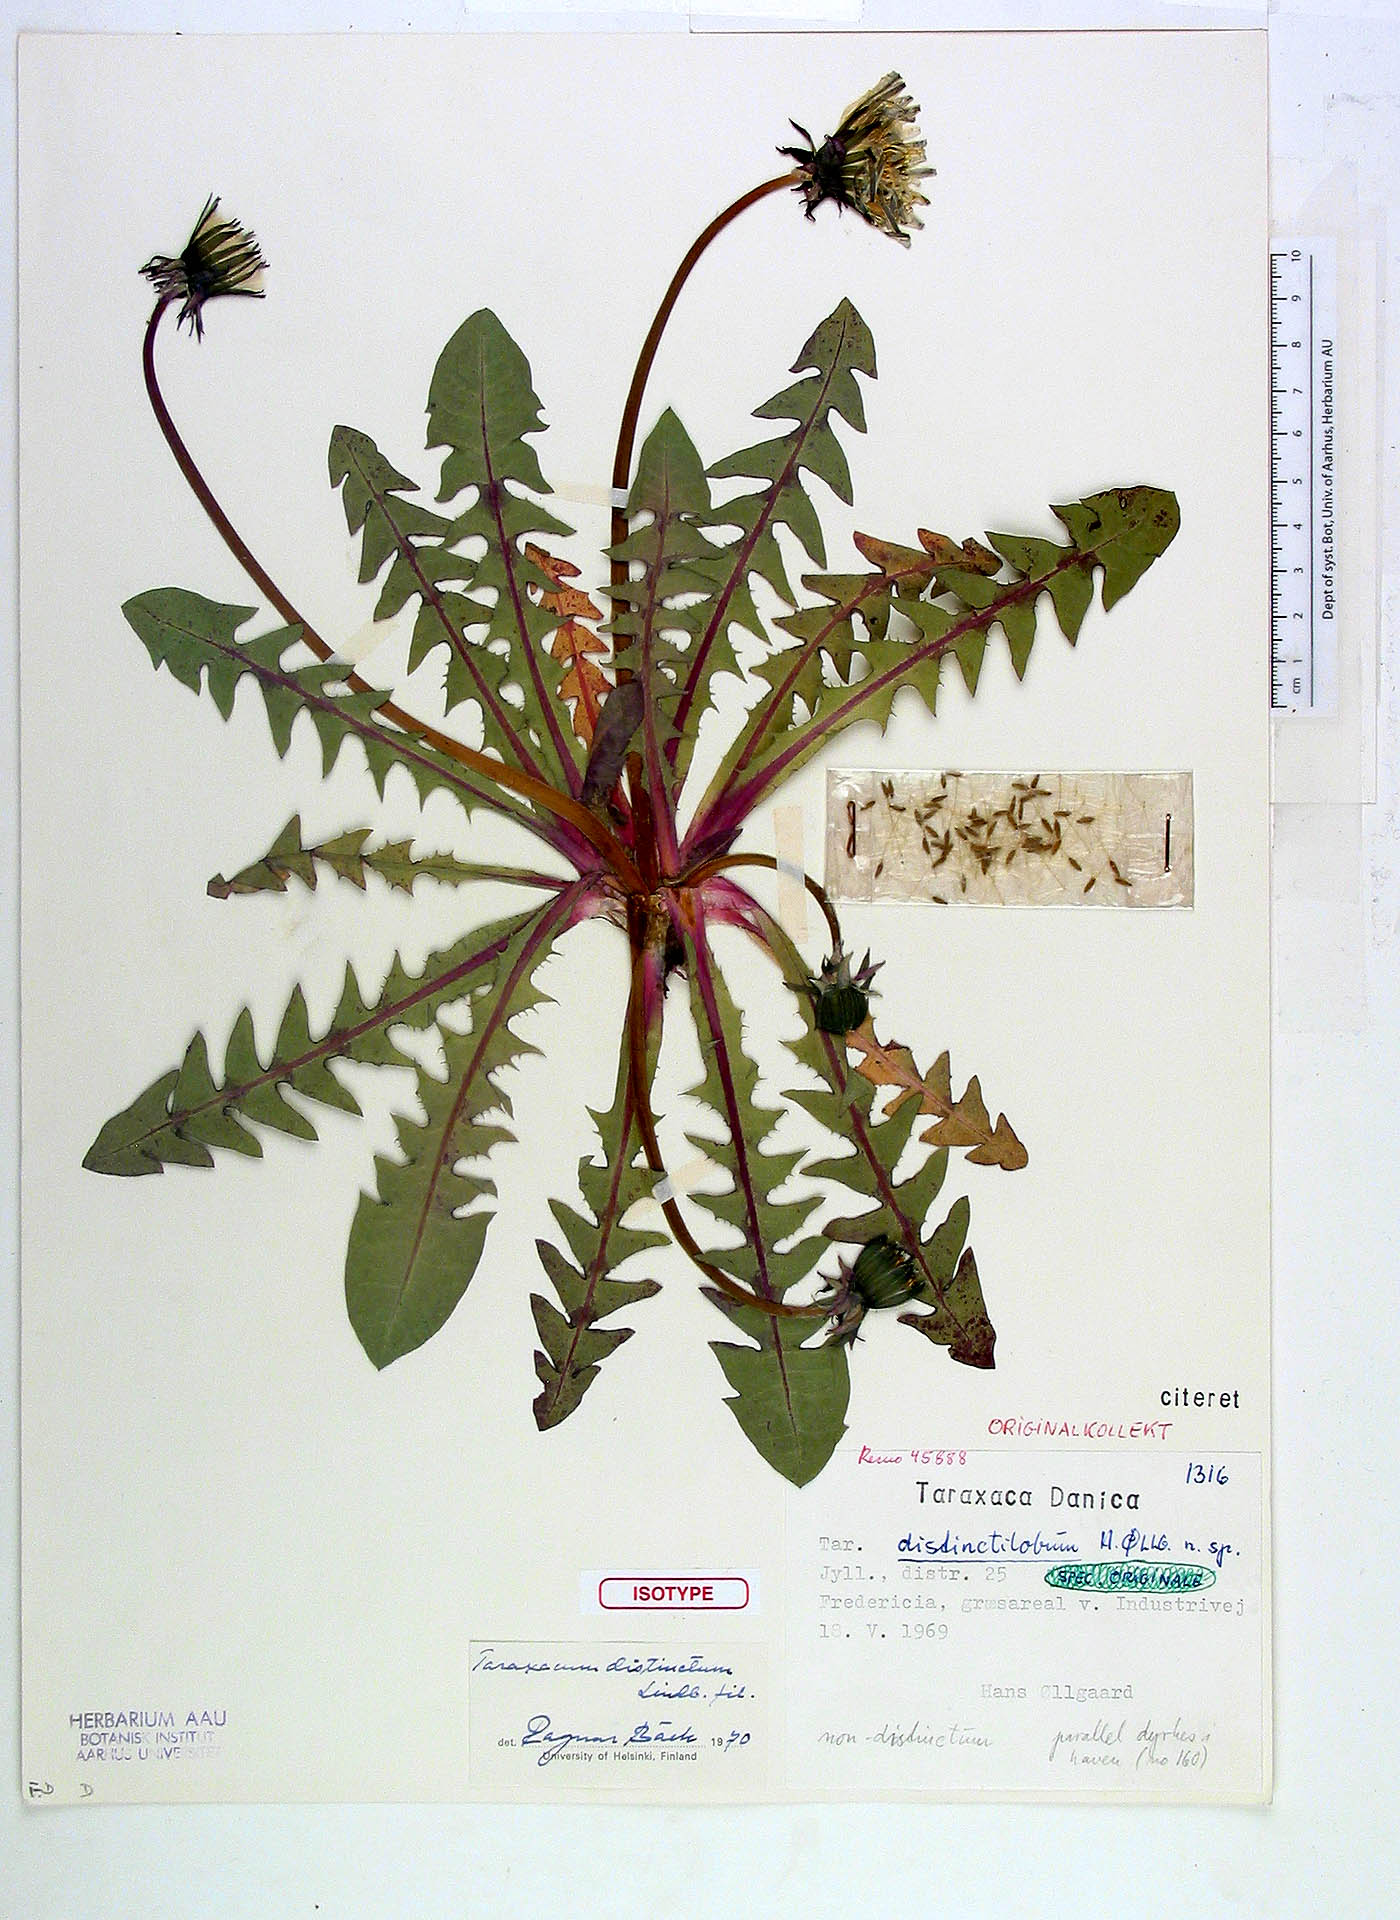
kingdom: Plantae
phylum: Tracheophyta
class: Magnoliopsida
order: Asterales
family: Asteraceae
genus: Taraxacum
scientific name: Taraxacum distinctum
